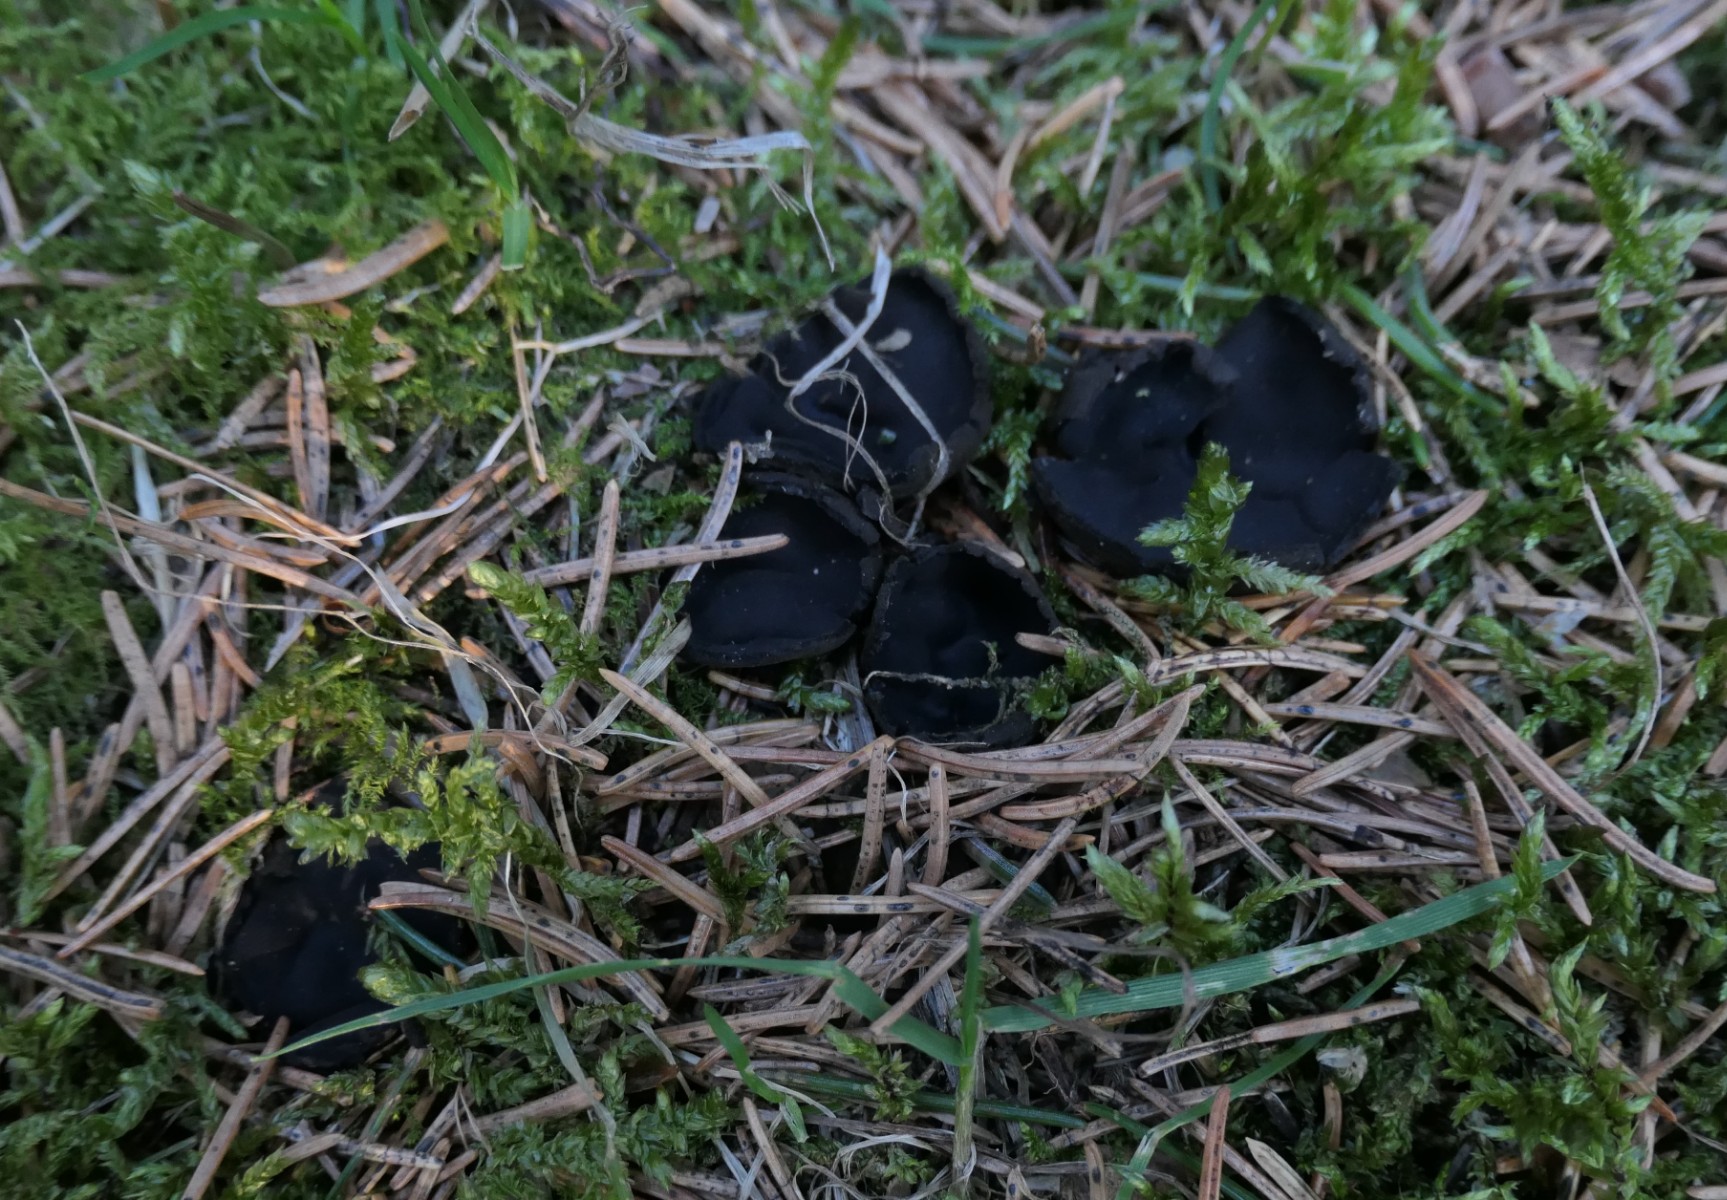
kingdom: Fungi
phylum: Ascomycota
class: Pezizomycetes
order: Pezizales
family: Sarcosomataceae
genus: Pseudoplectania
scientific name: Pseudoplectania nigrella
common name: almindelig sortbæger
